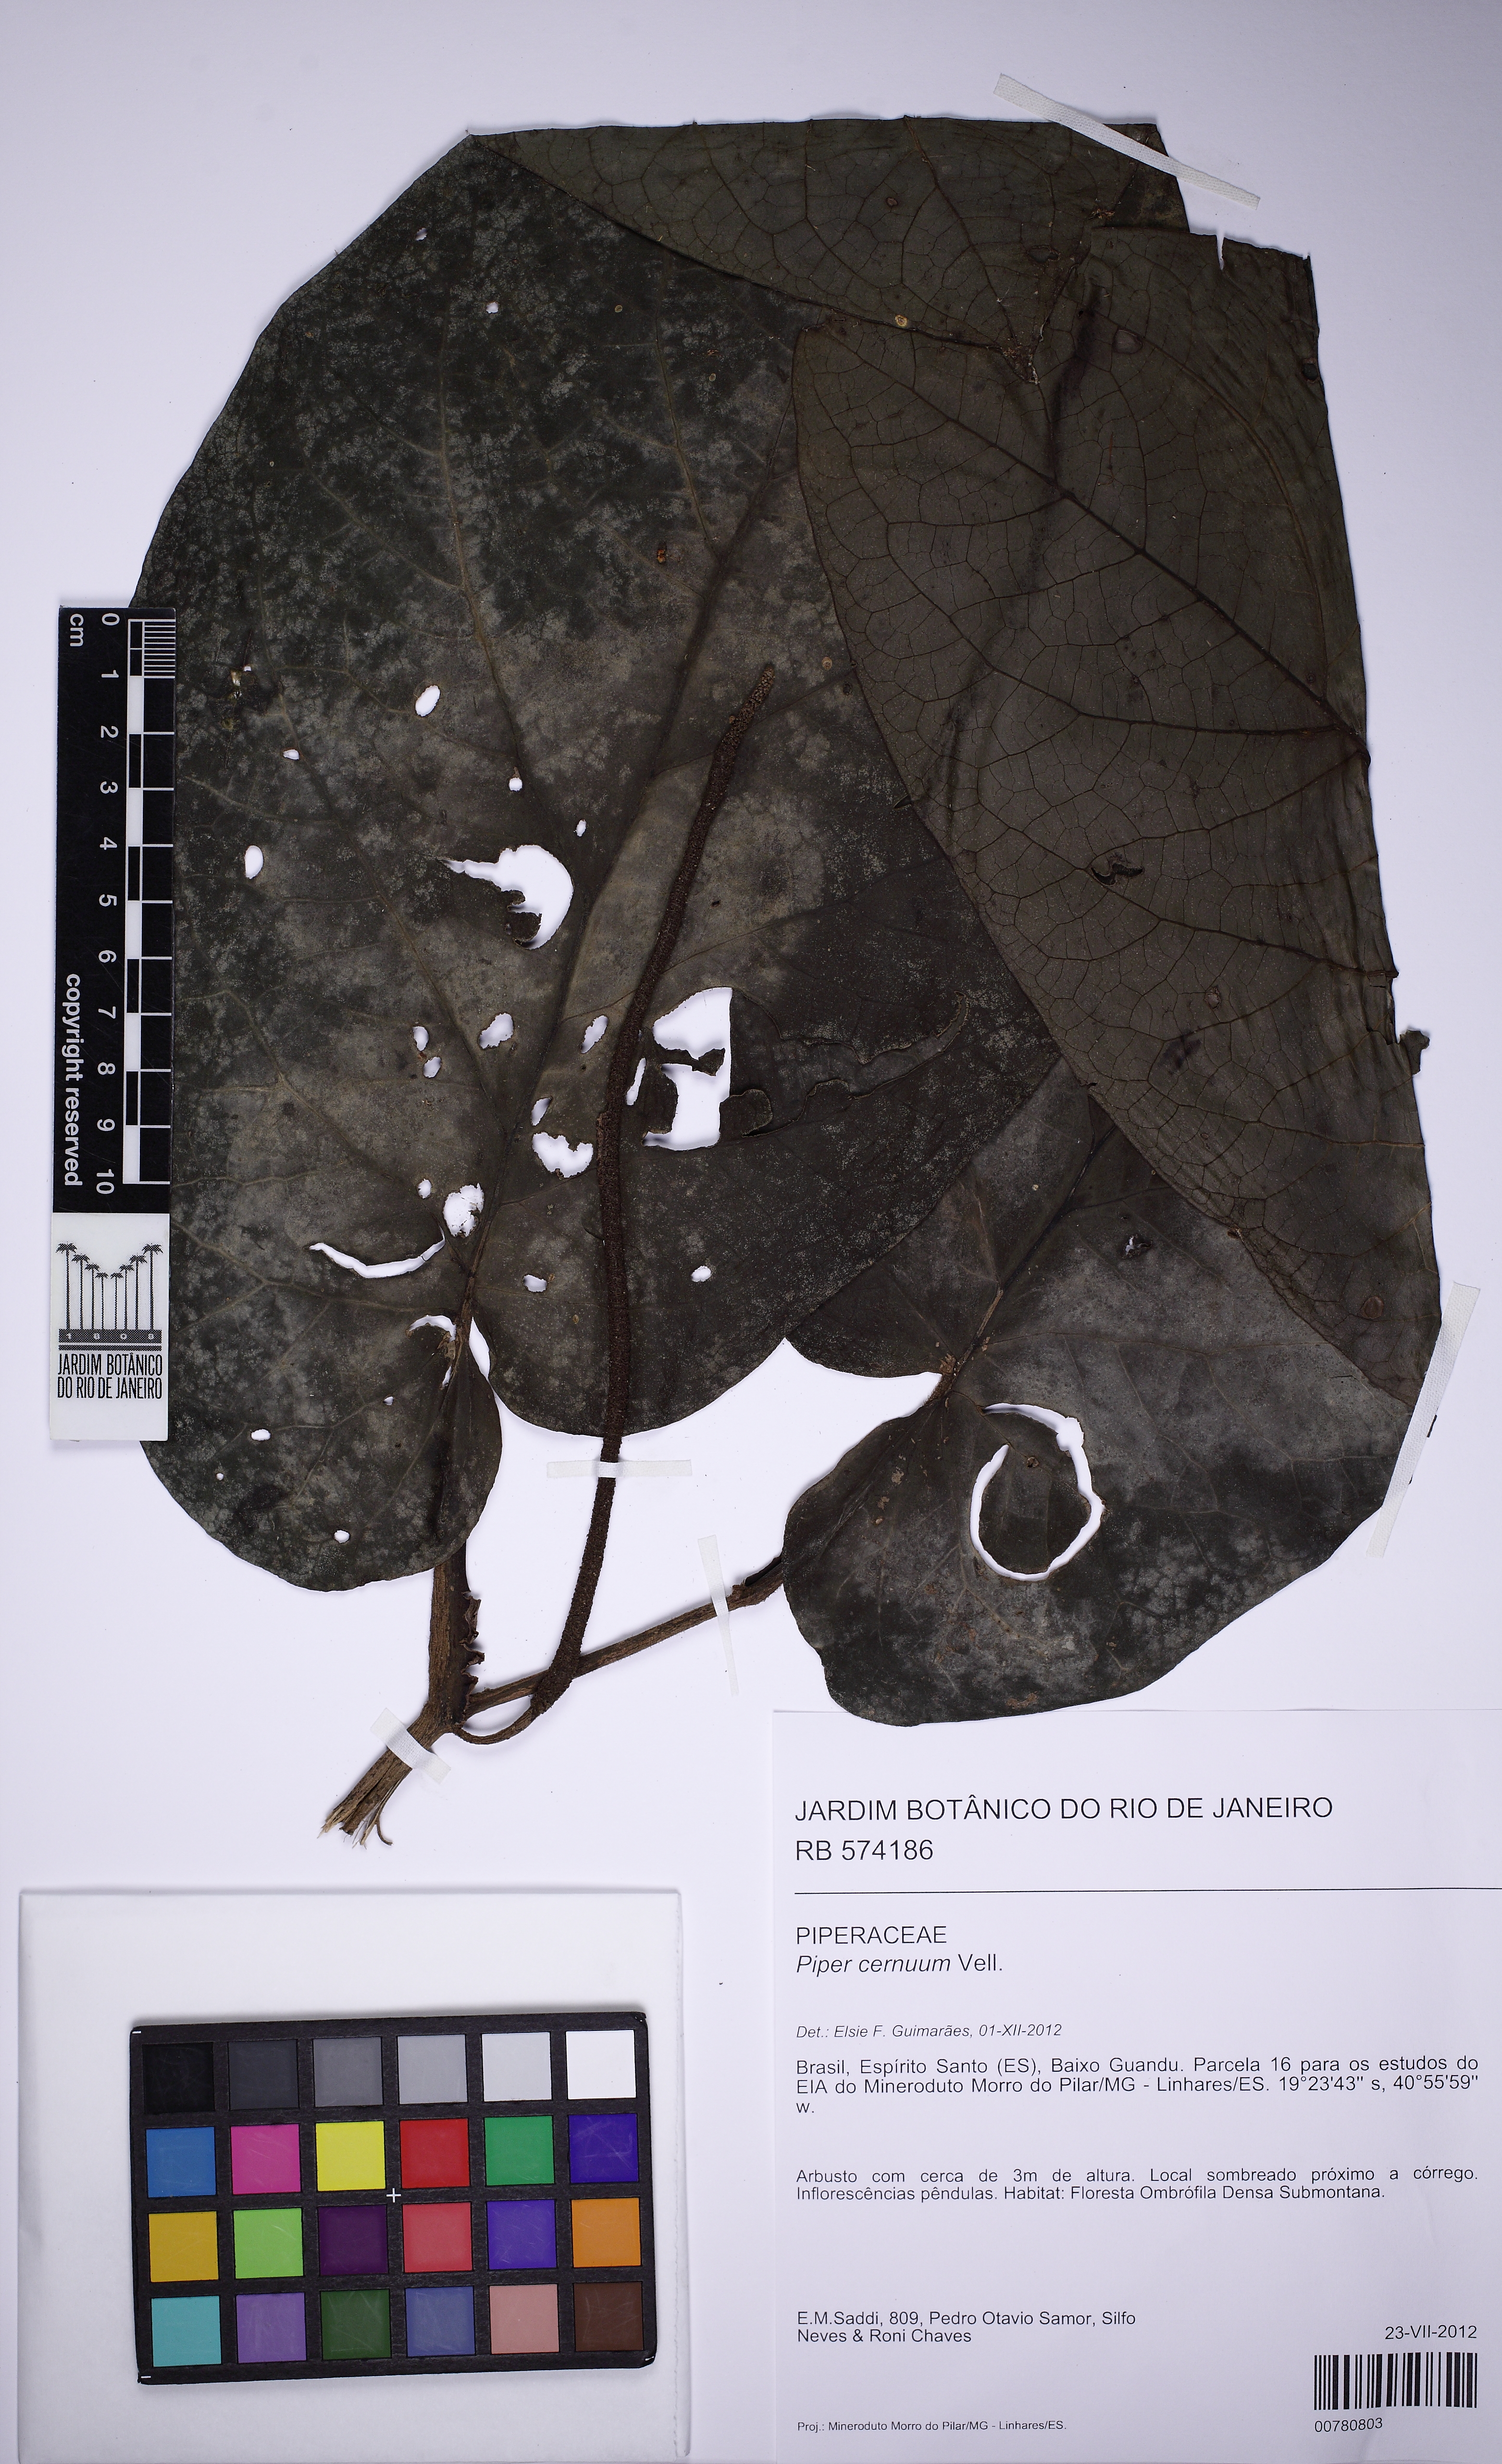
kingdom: Plantae
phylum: Tracheophyta
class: Magnoliopsida
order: Piperales
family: Piperaceae
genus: Piper
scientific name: Piper cernuum
